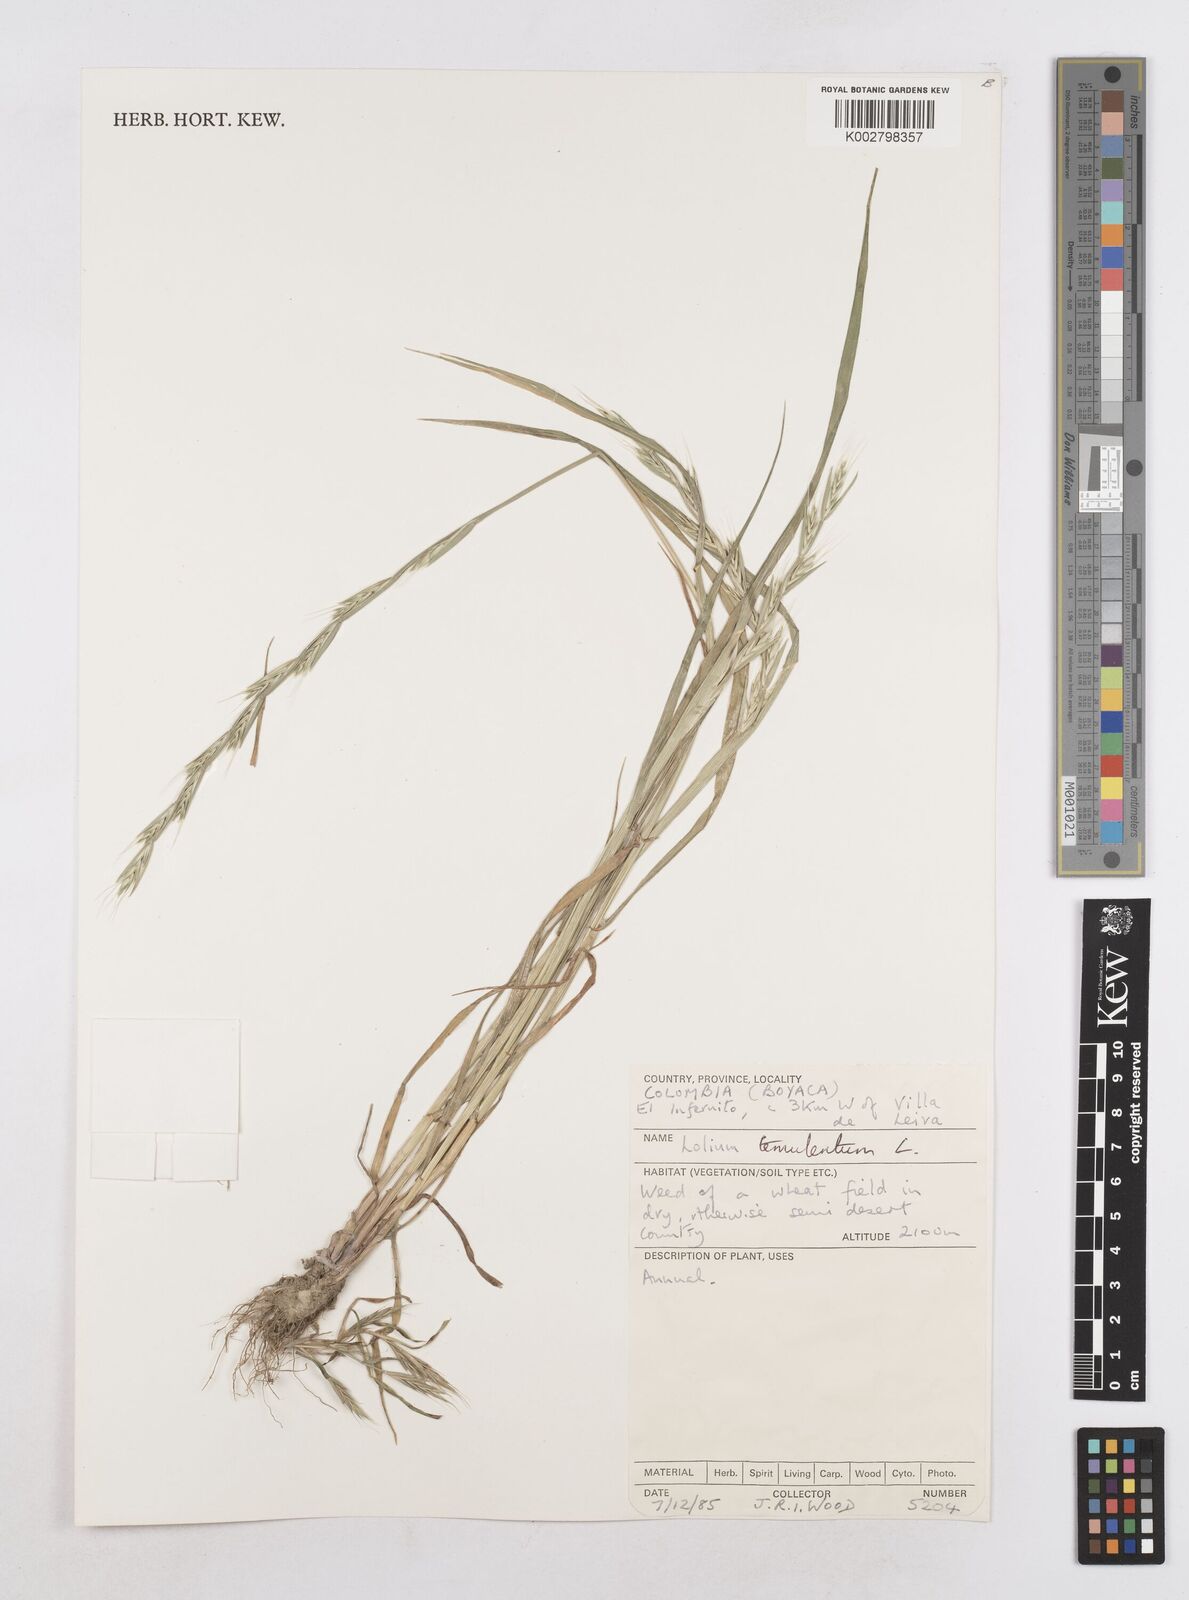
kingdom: Plantae
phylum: Tracheophyta
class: Liliopsida
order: Poales
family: Poaceae
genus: Lolium
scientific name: Lolium temulentum
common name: Darnel
